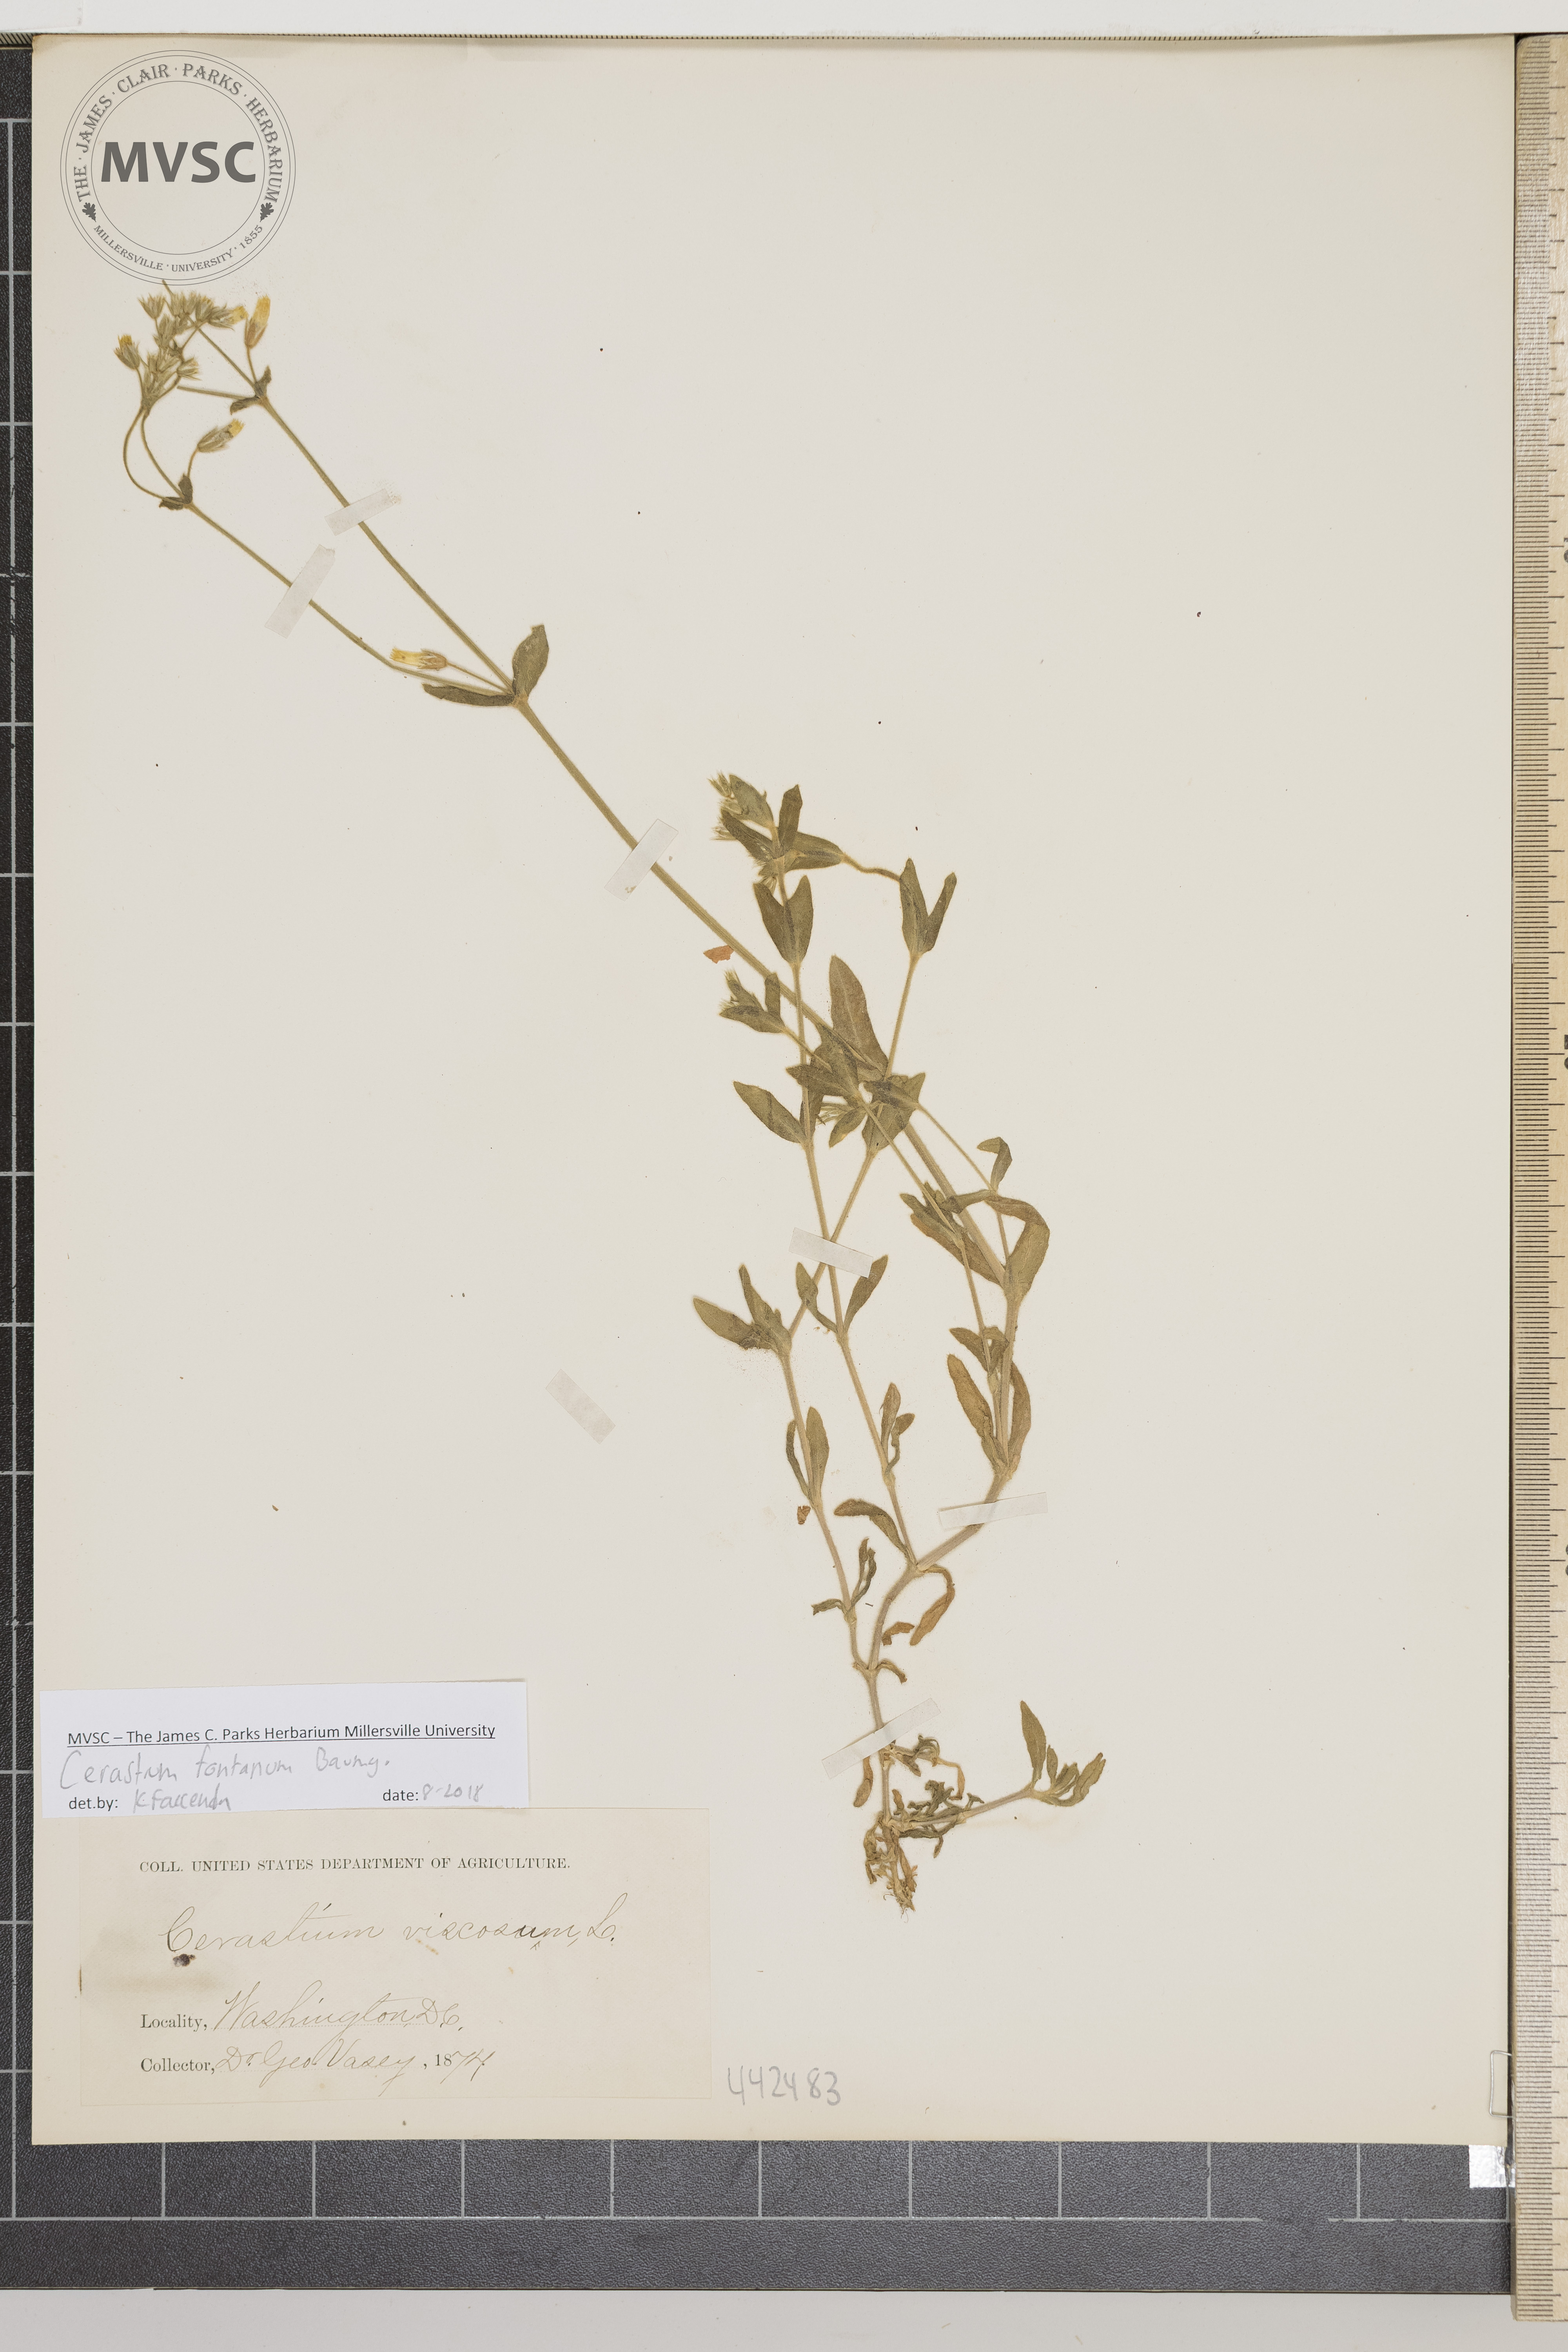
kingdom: Plantae
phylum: Tracheophyta
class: Magnoliopsida
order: Caryophyllales
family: Caryophyllaceae
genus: Cerastium
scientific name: Cerastium fontanum
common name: Common mouse-ear
